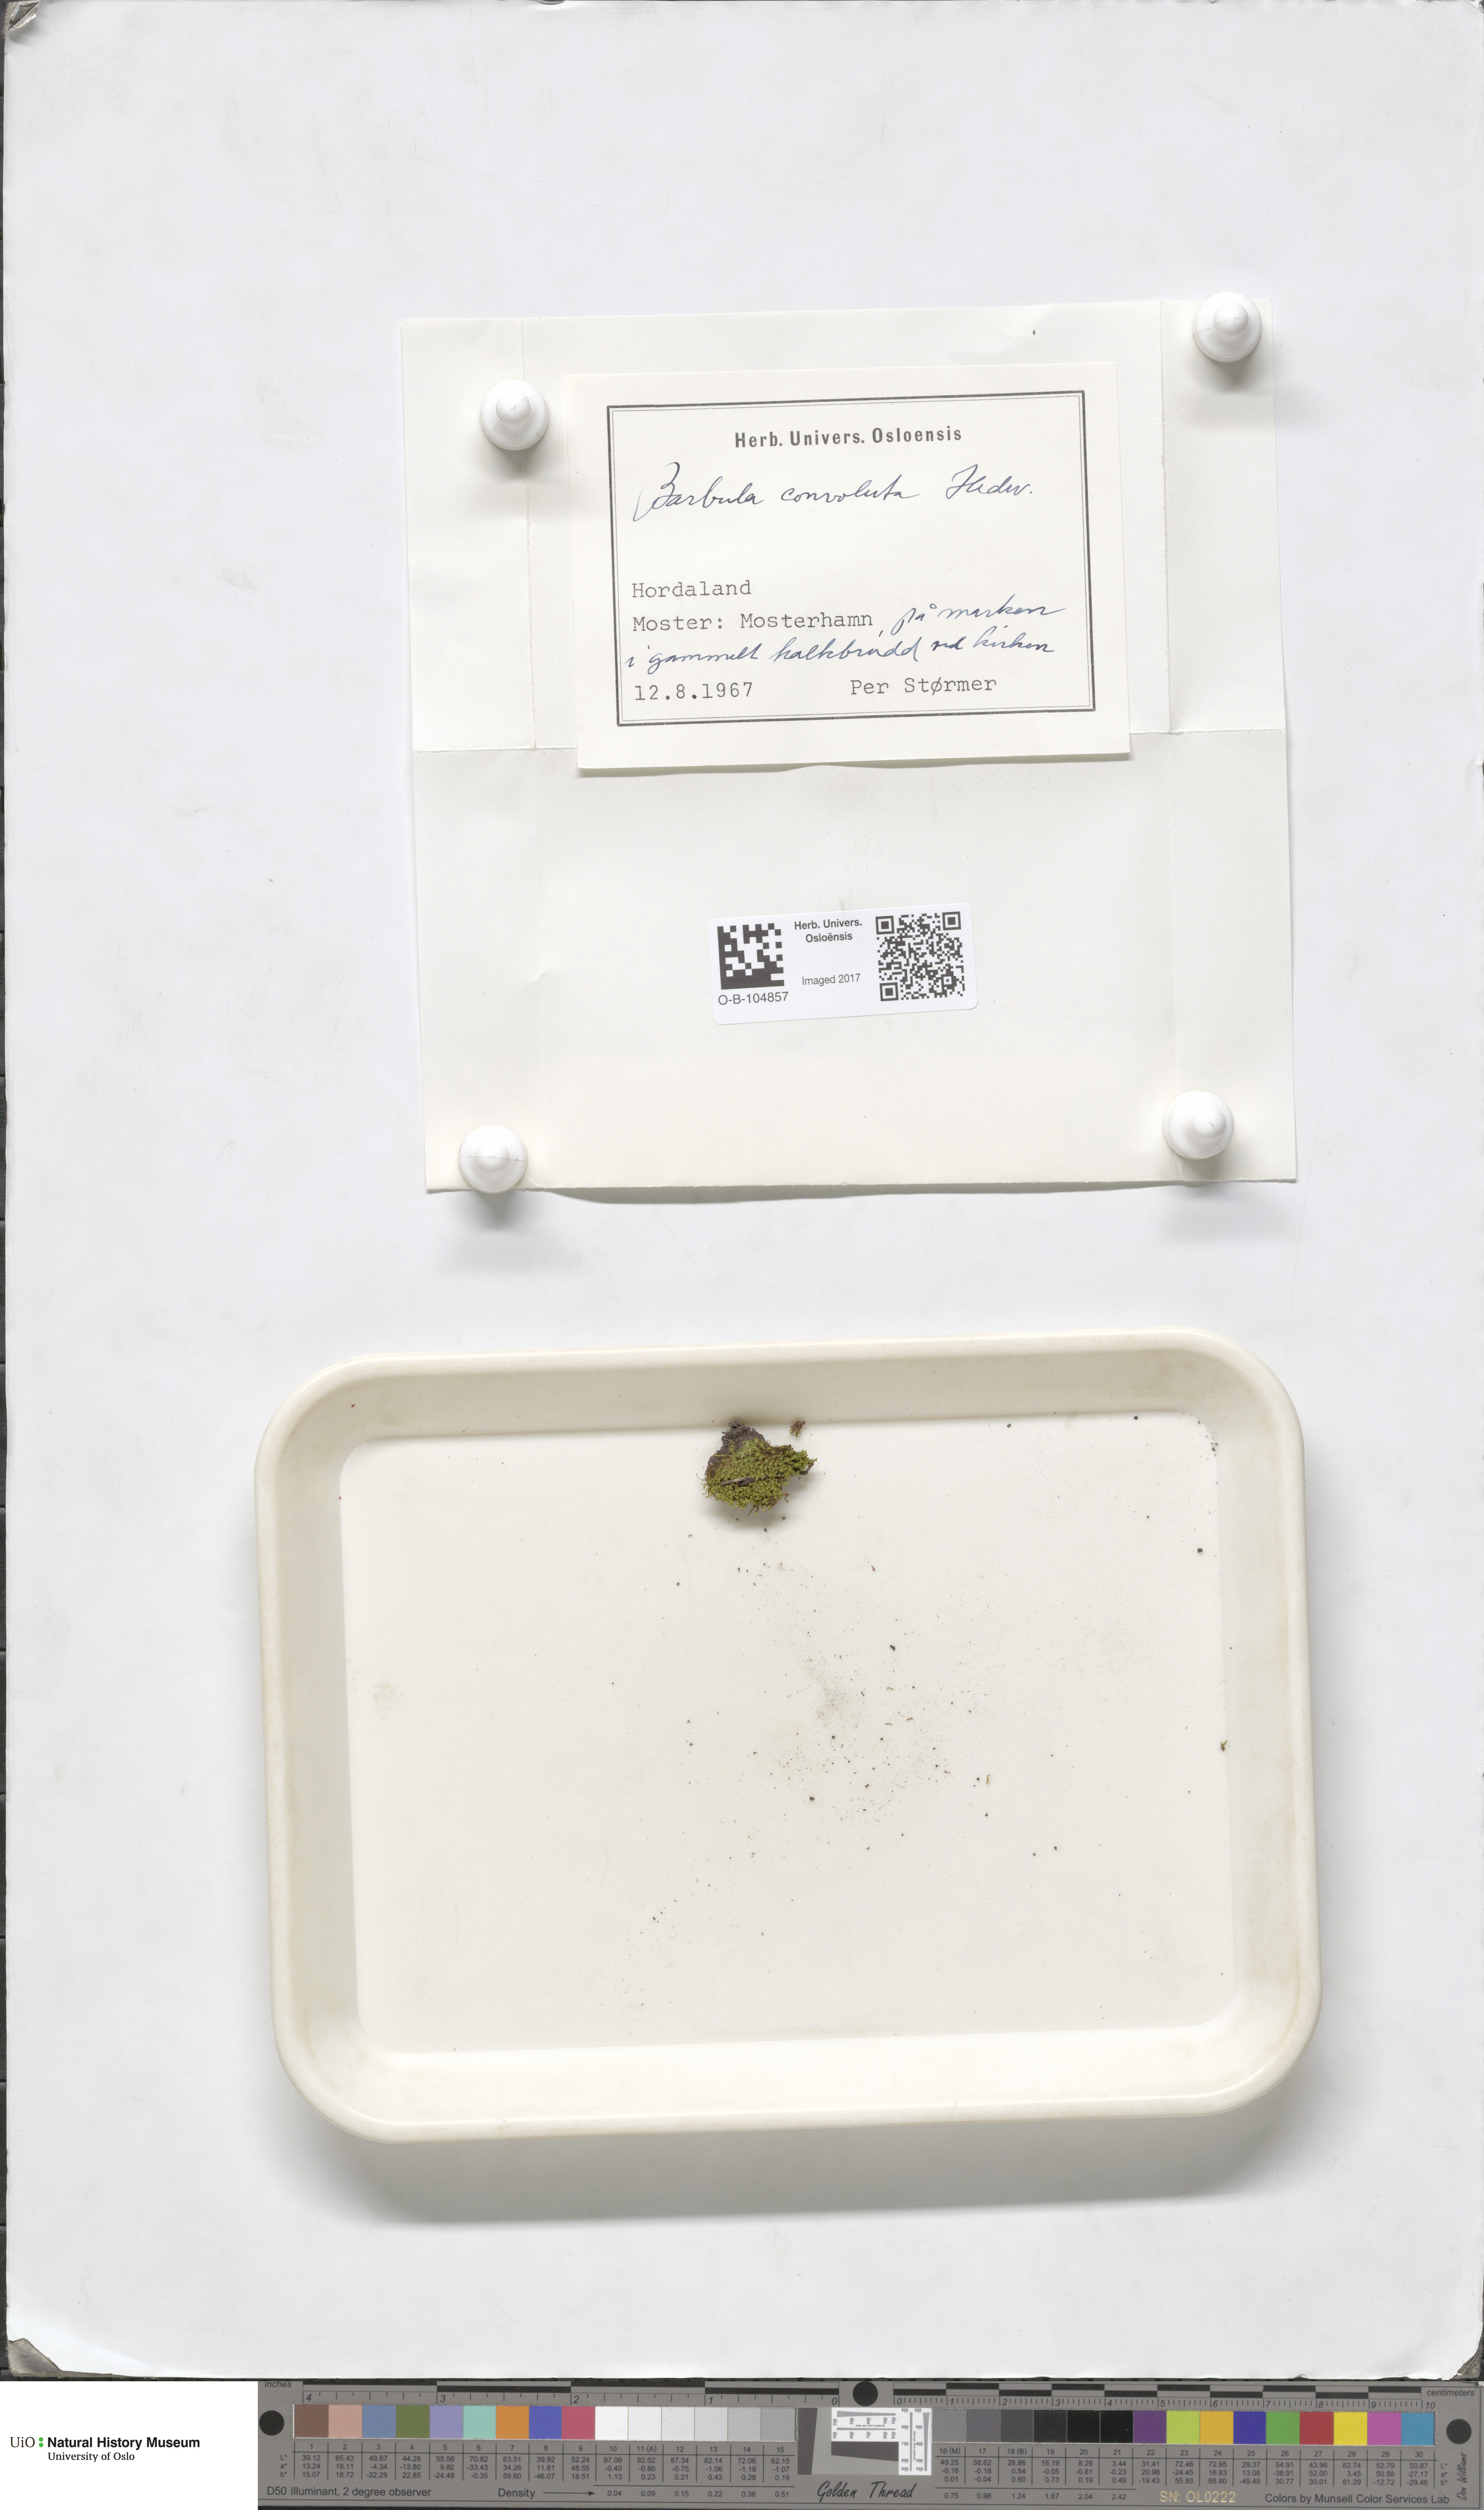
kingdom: Plantae
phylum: Bryophyta
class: Bryopsida
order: Pottiales
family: Pottiaceae
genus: Streblotrichum
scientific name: Streblotrichum convolutum
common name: Lesser bird's-claw beard-moss
